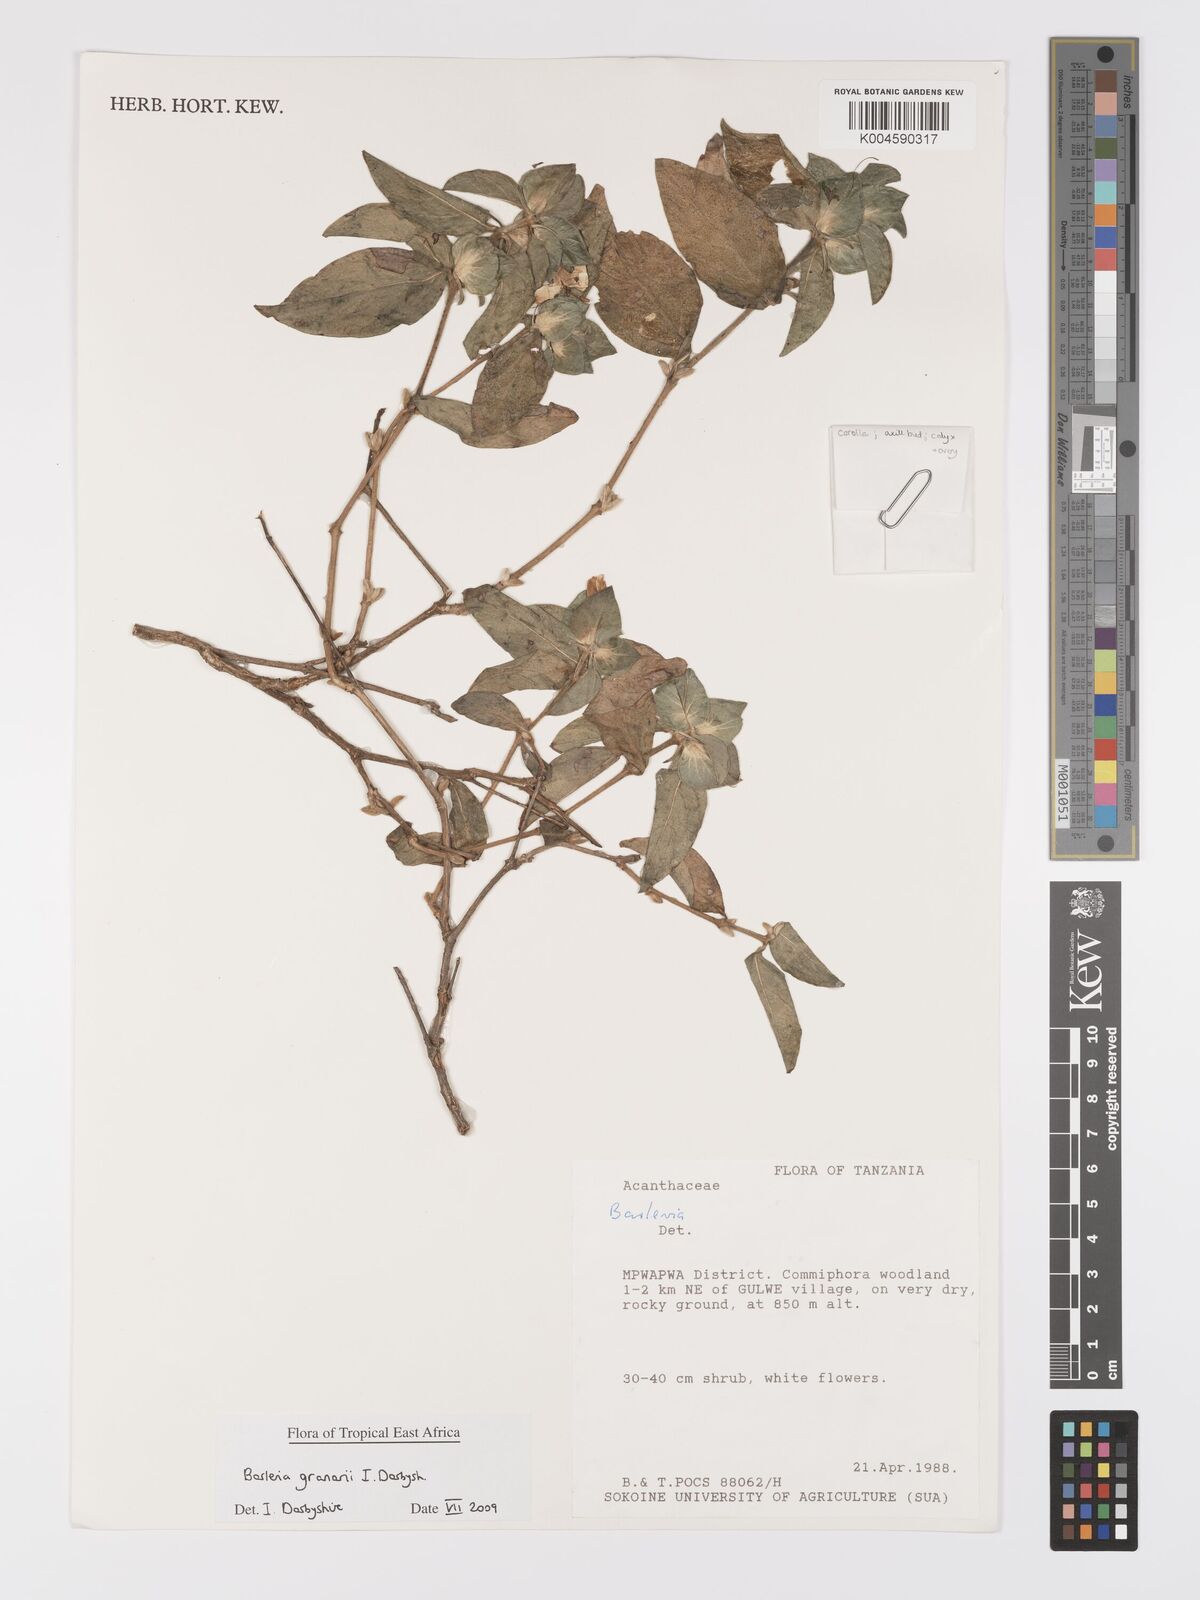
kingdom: Plantae
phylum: Tracheophyta
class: Magnoliopsida
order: Lamiales
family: Acanthaceae
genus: Barleria
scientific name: Barleria granarii
